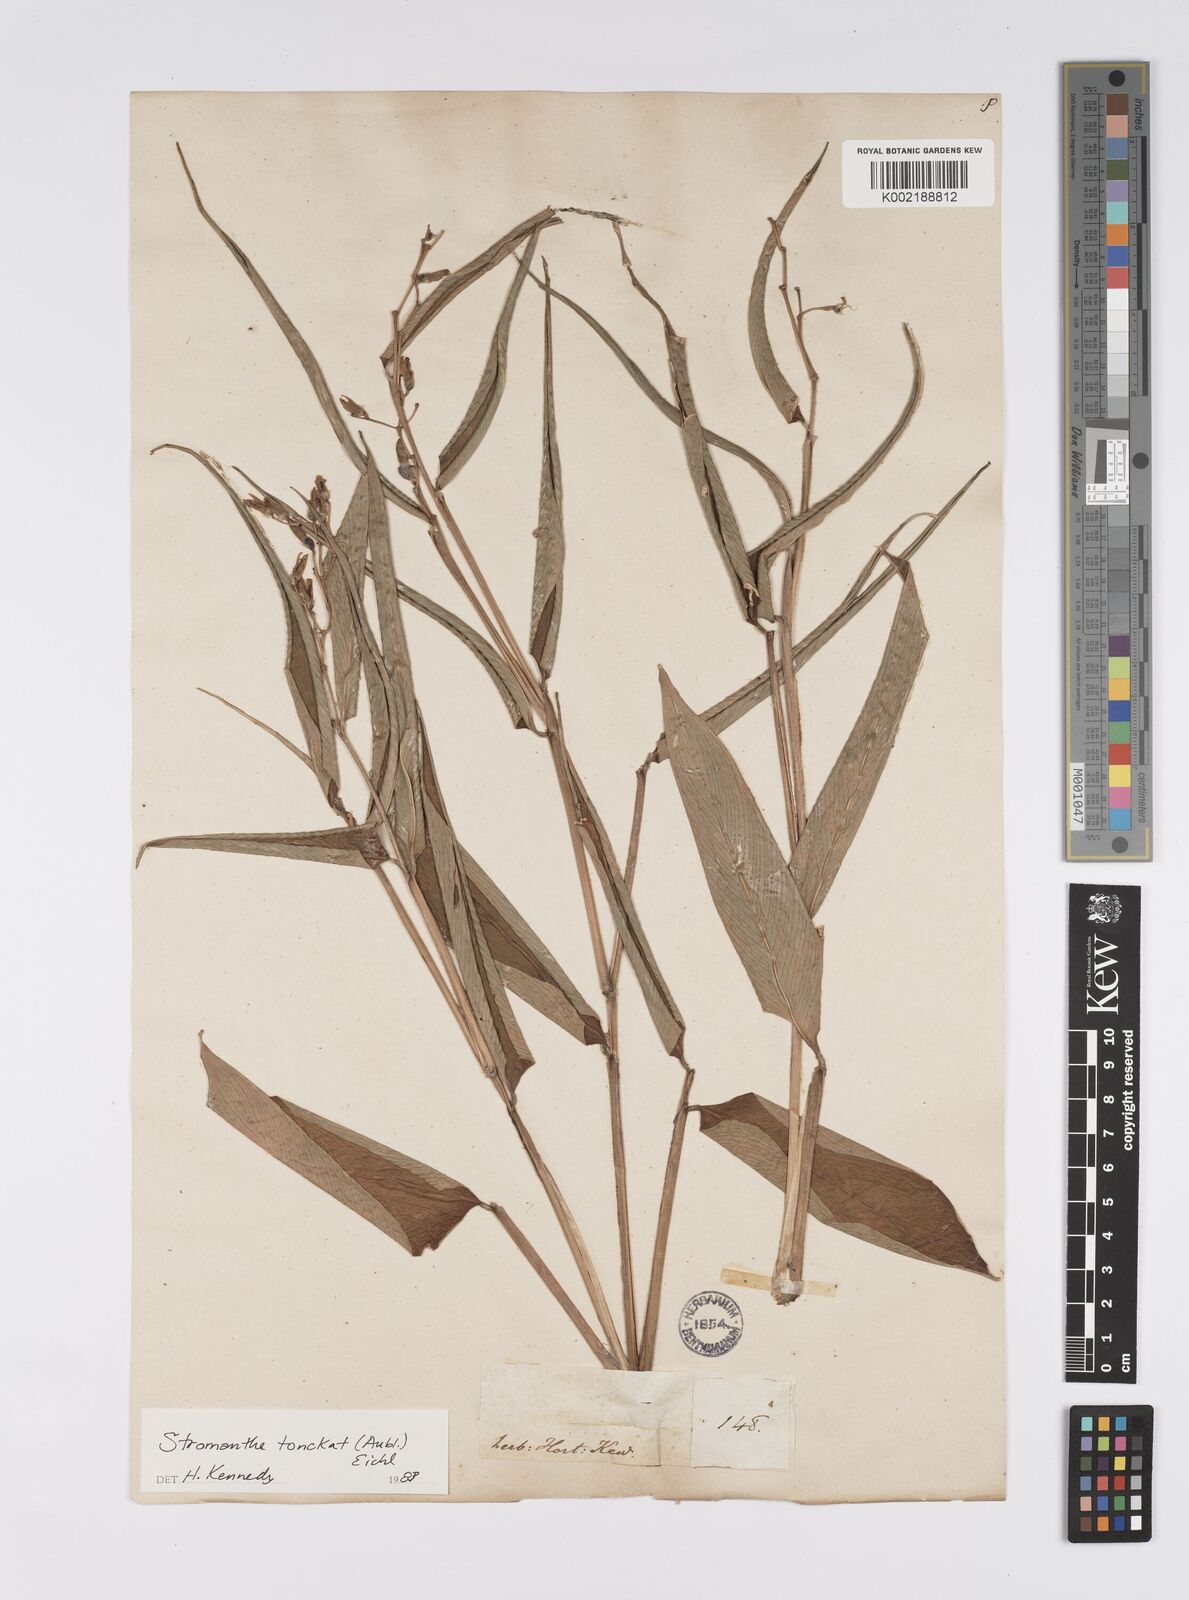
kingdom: Plantae
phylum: Tracheophyta
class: Liliopsida
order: Zingiberales
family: Marantaceae
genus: Stromanthe
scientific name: Stromanthe tonckat
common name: Stromanthe
